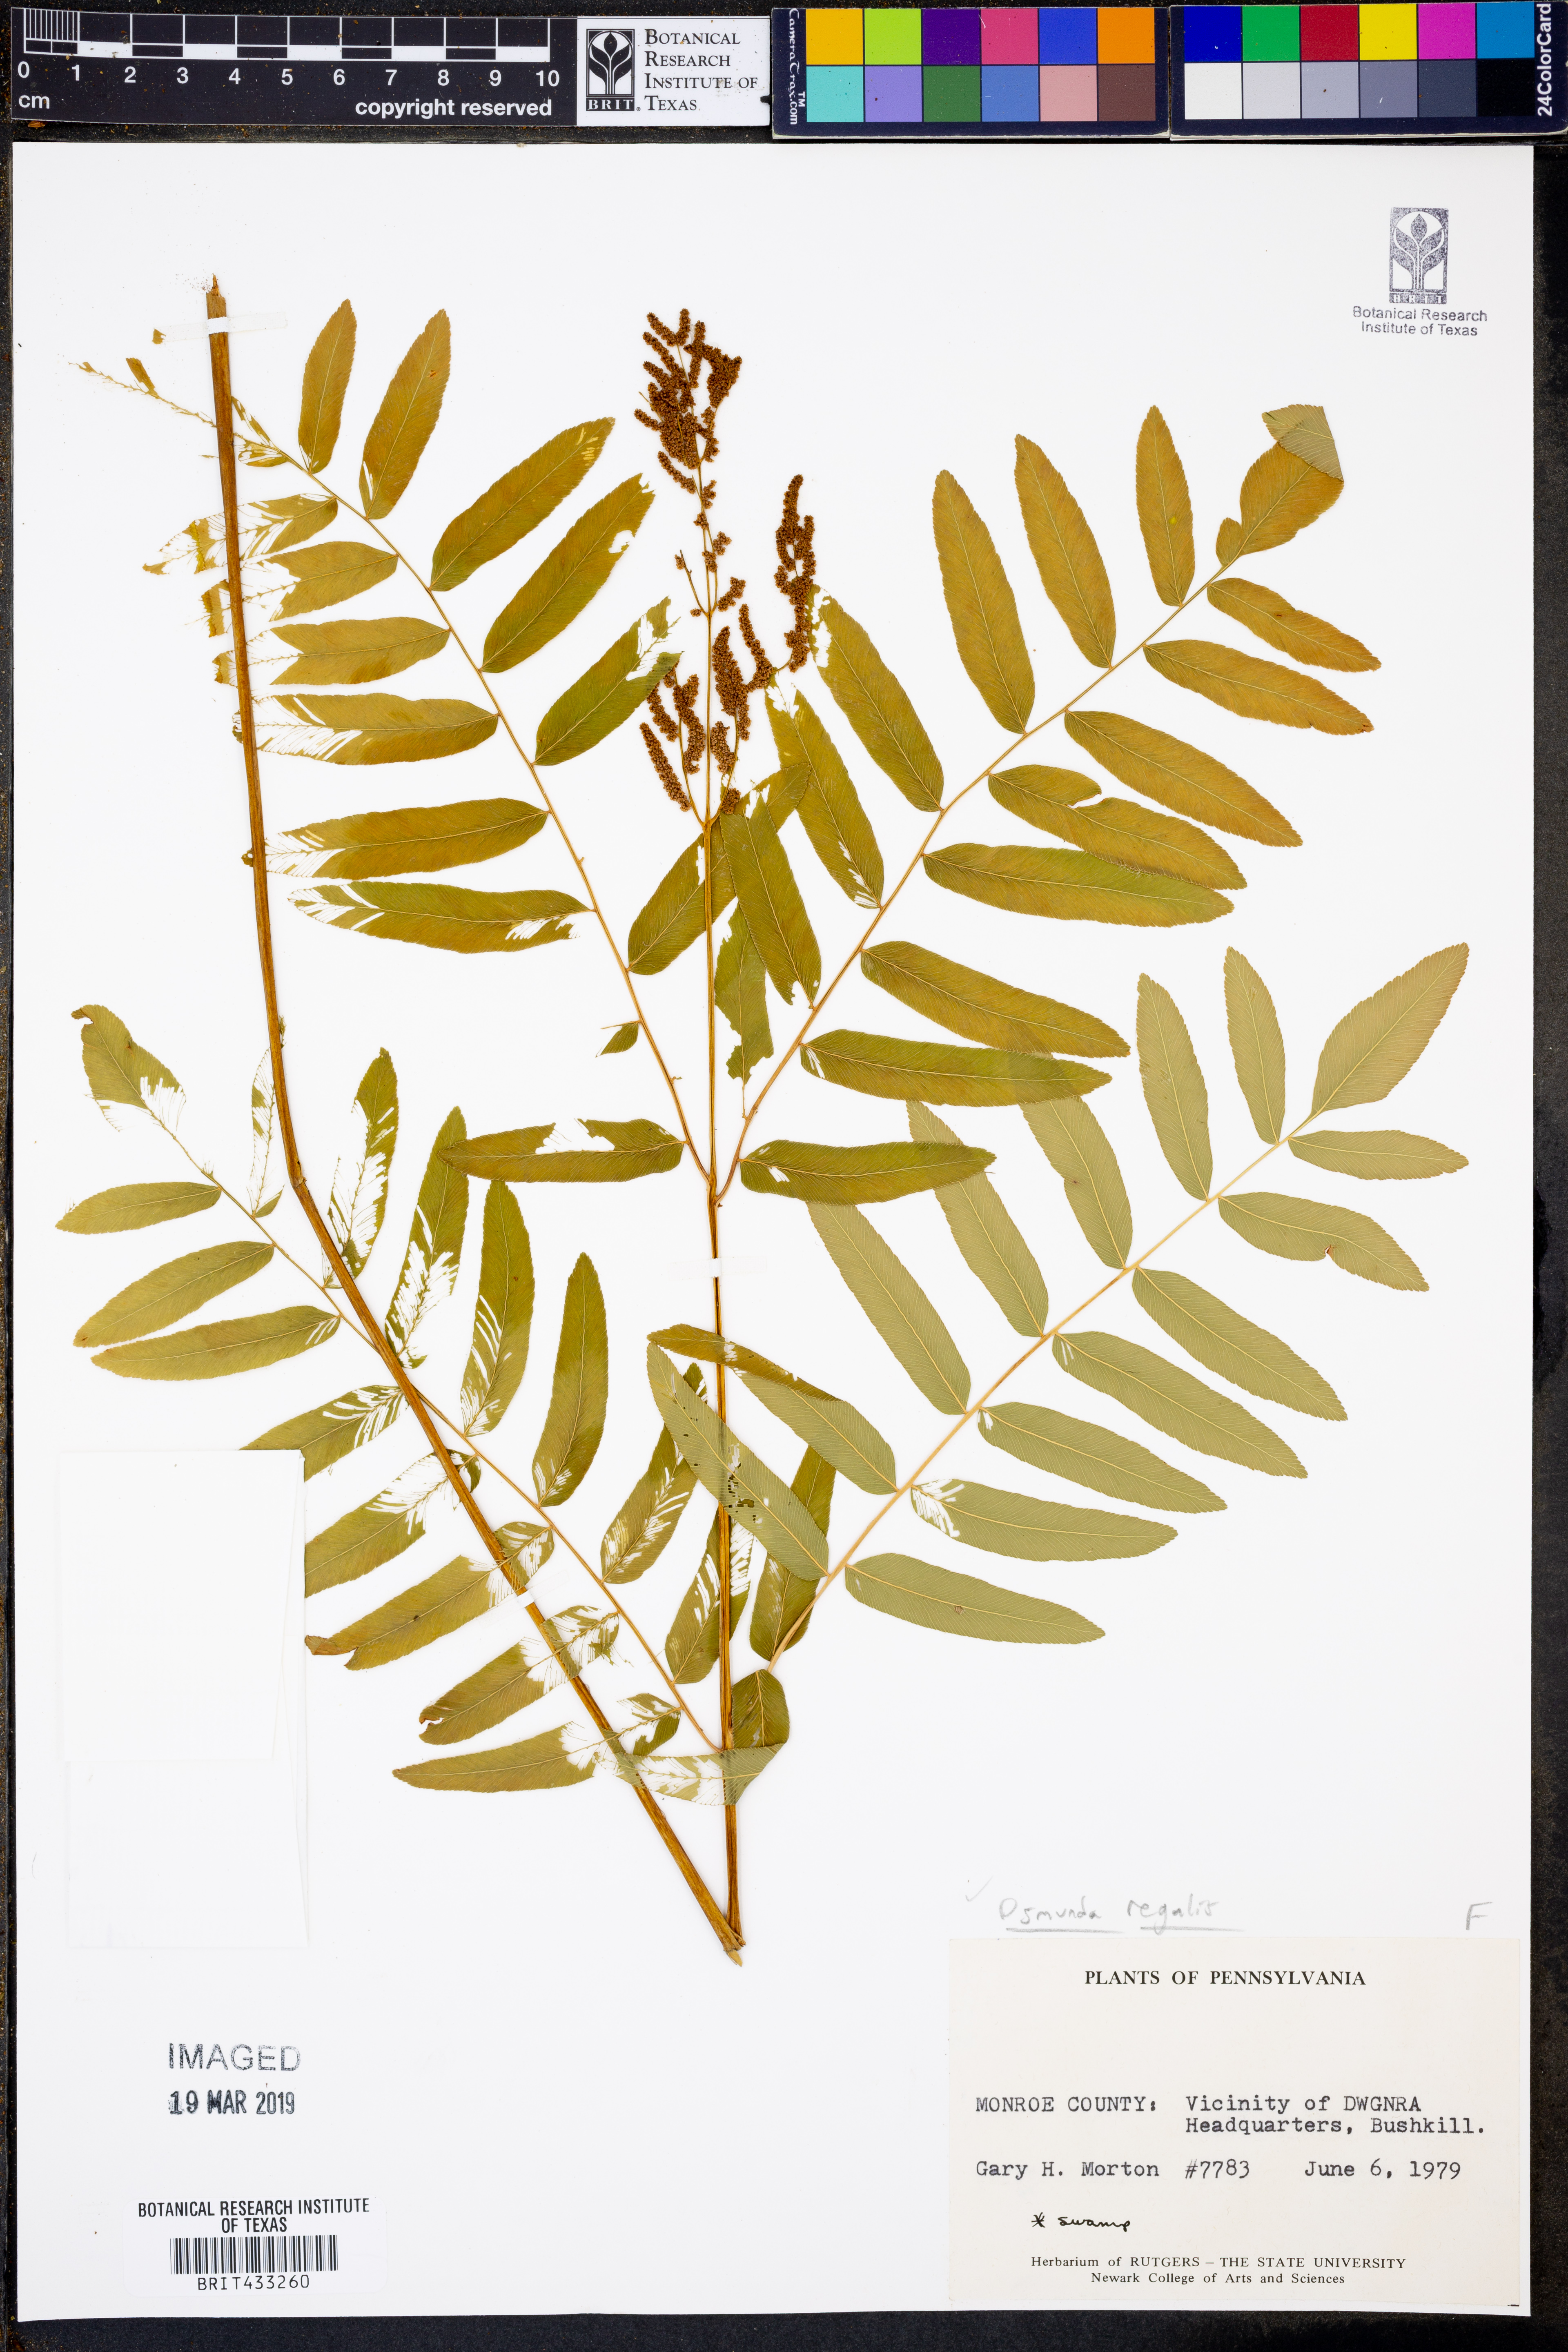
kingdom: Plantae
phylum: Tracheophyta
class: Polypodiopsida
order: Osmundales
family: Osmundaceae
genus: Osmunda
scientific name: Osmunda regalis
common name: Royal fern
